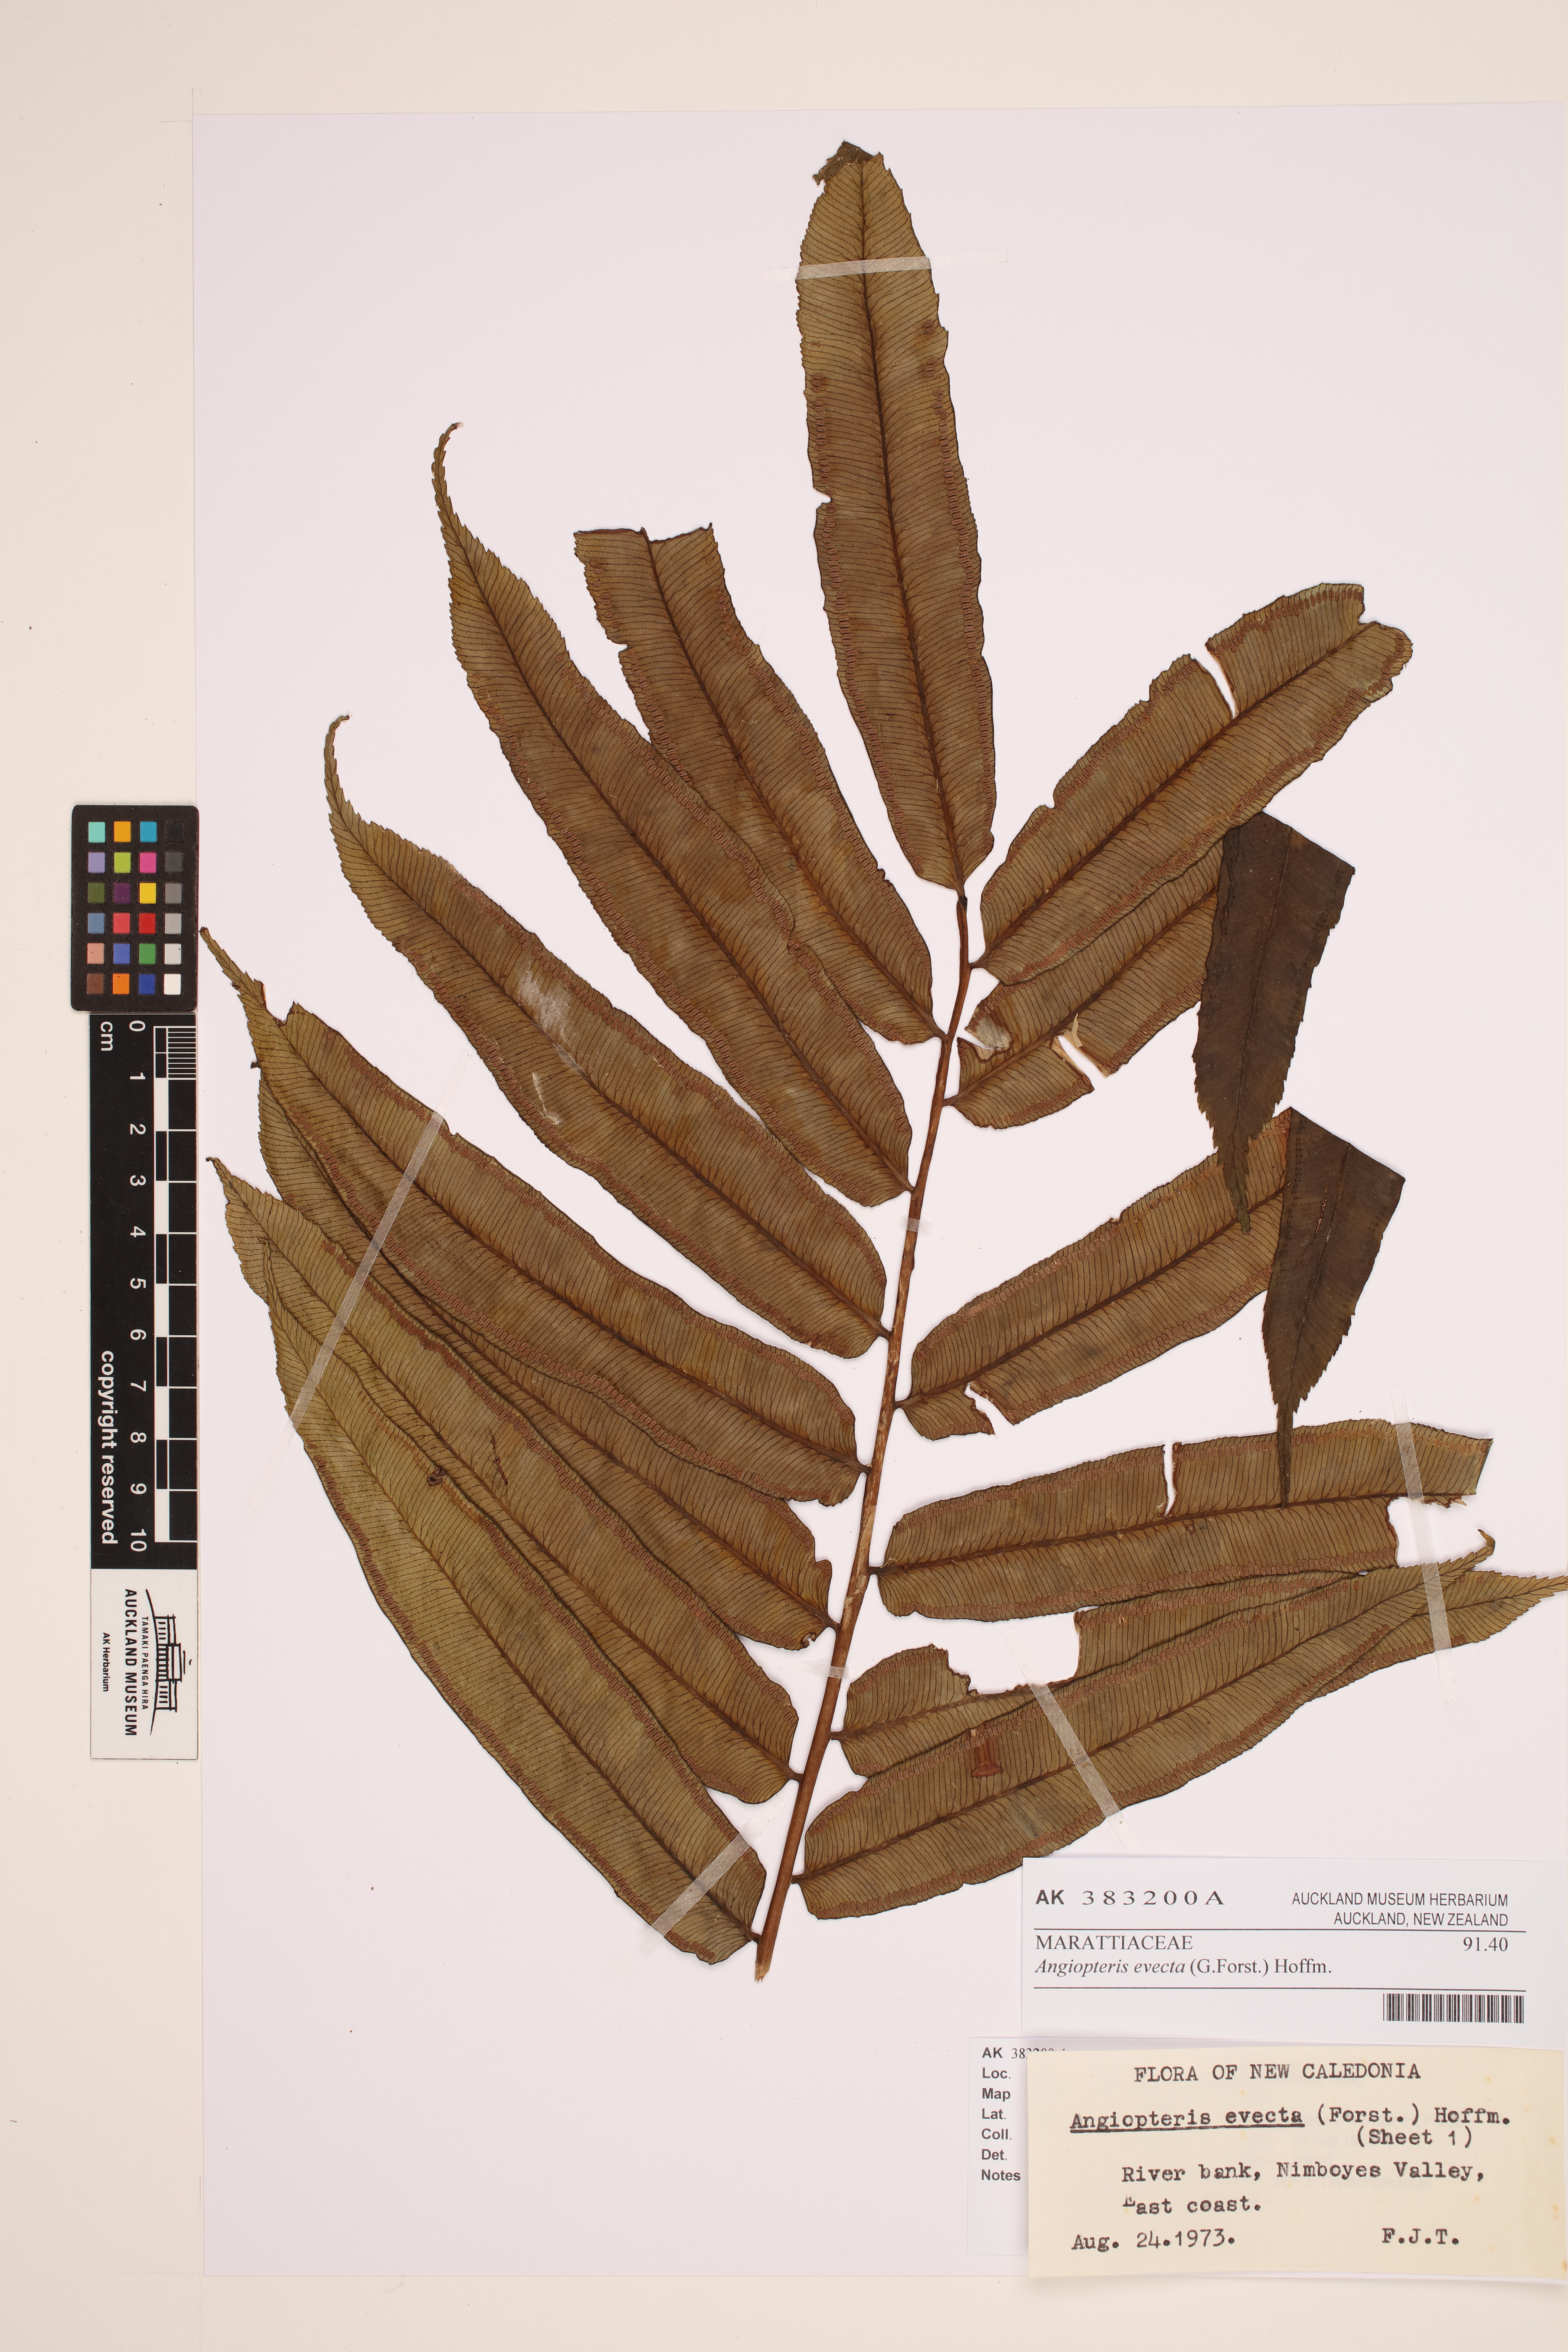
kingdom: Plantae
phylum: Tracheophyta
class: Polypodiopsida
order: Marattiales
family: Marattiaceae
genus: Angiopteris
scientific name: Angiopteris evecta
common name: Mule's-foot fern
